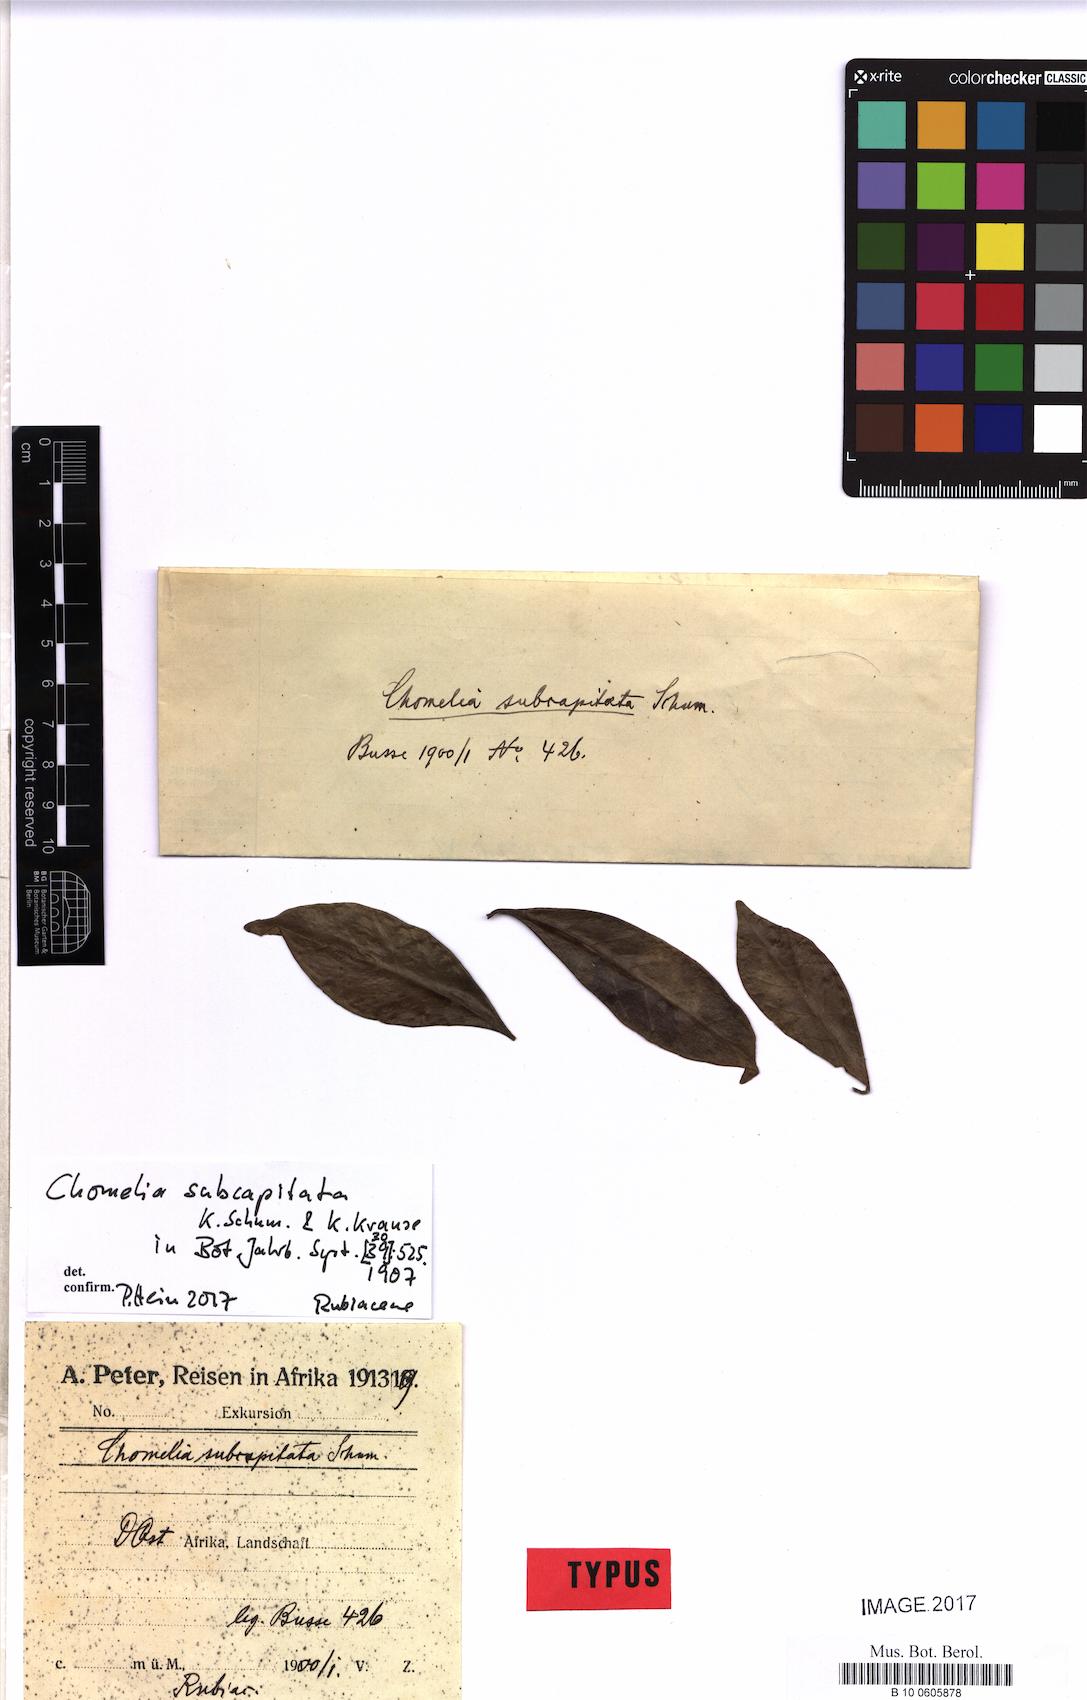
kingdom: Plantae
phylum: Tracheophyta
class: Magnoliopsida
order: Gentianales
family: Rubiaceae
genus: Cladoceras
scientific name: Cladoceras subcapitatum
